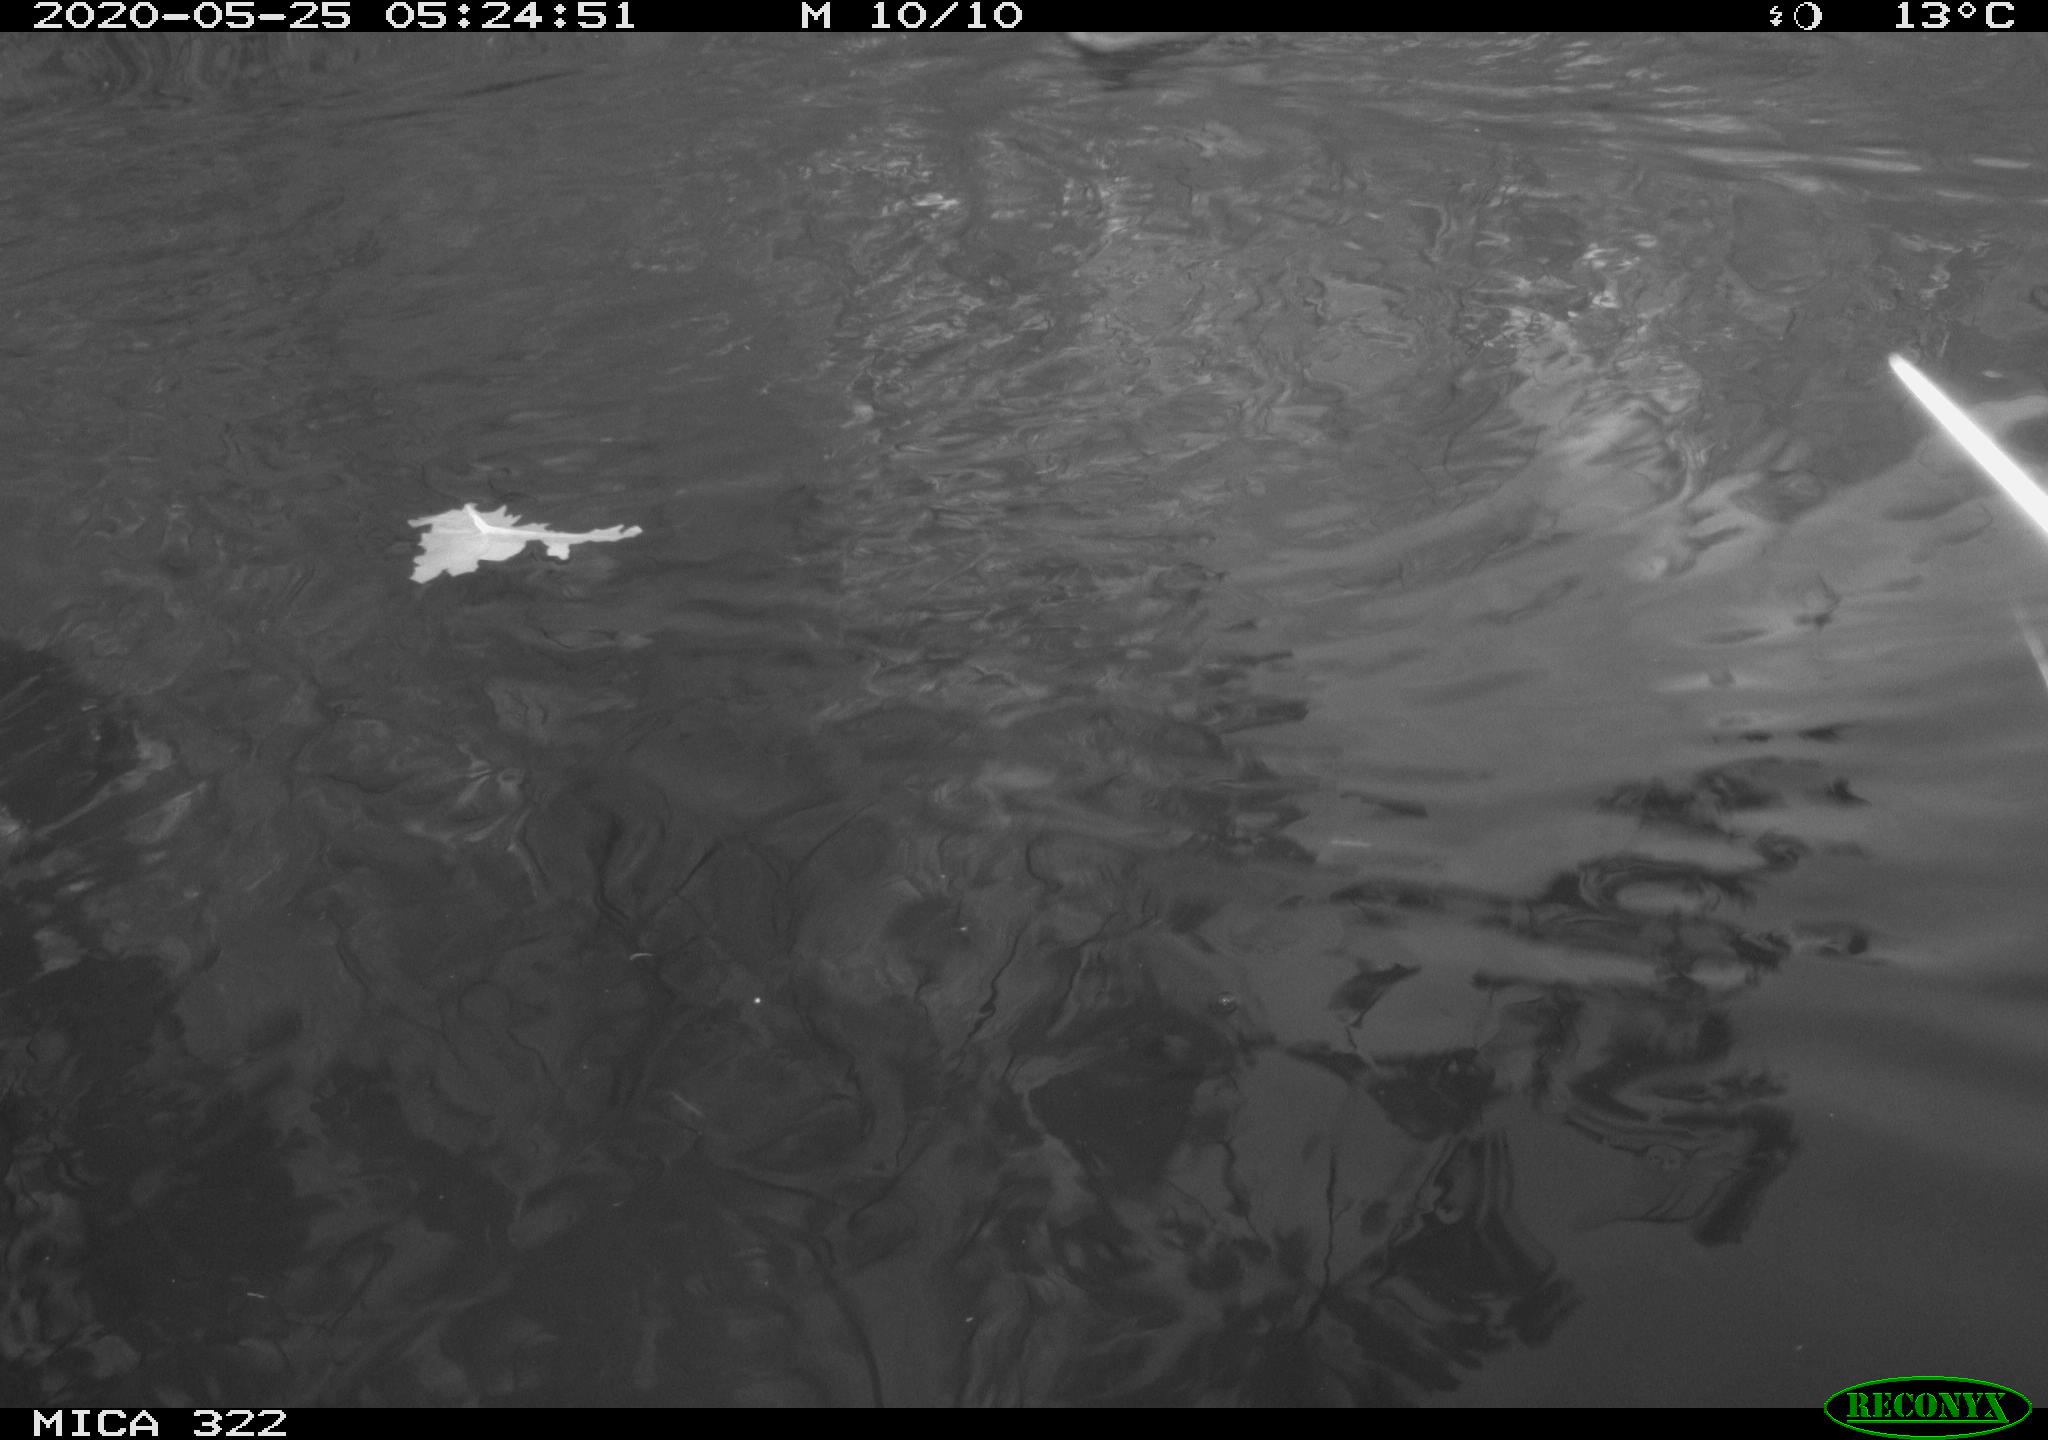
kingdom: Animalia
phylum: Chordata
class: Aves
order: Podicipediformes
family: Podicipedidae
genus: Podiceps
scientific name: Podiceps cristatus
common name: Great crested grebe
